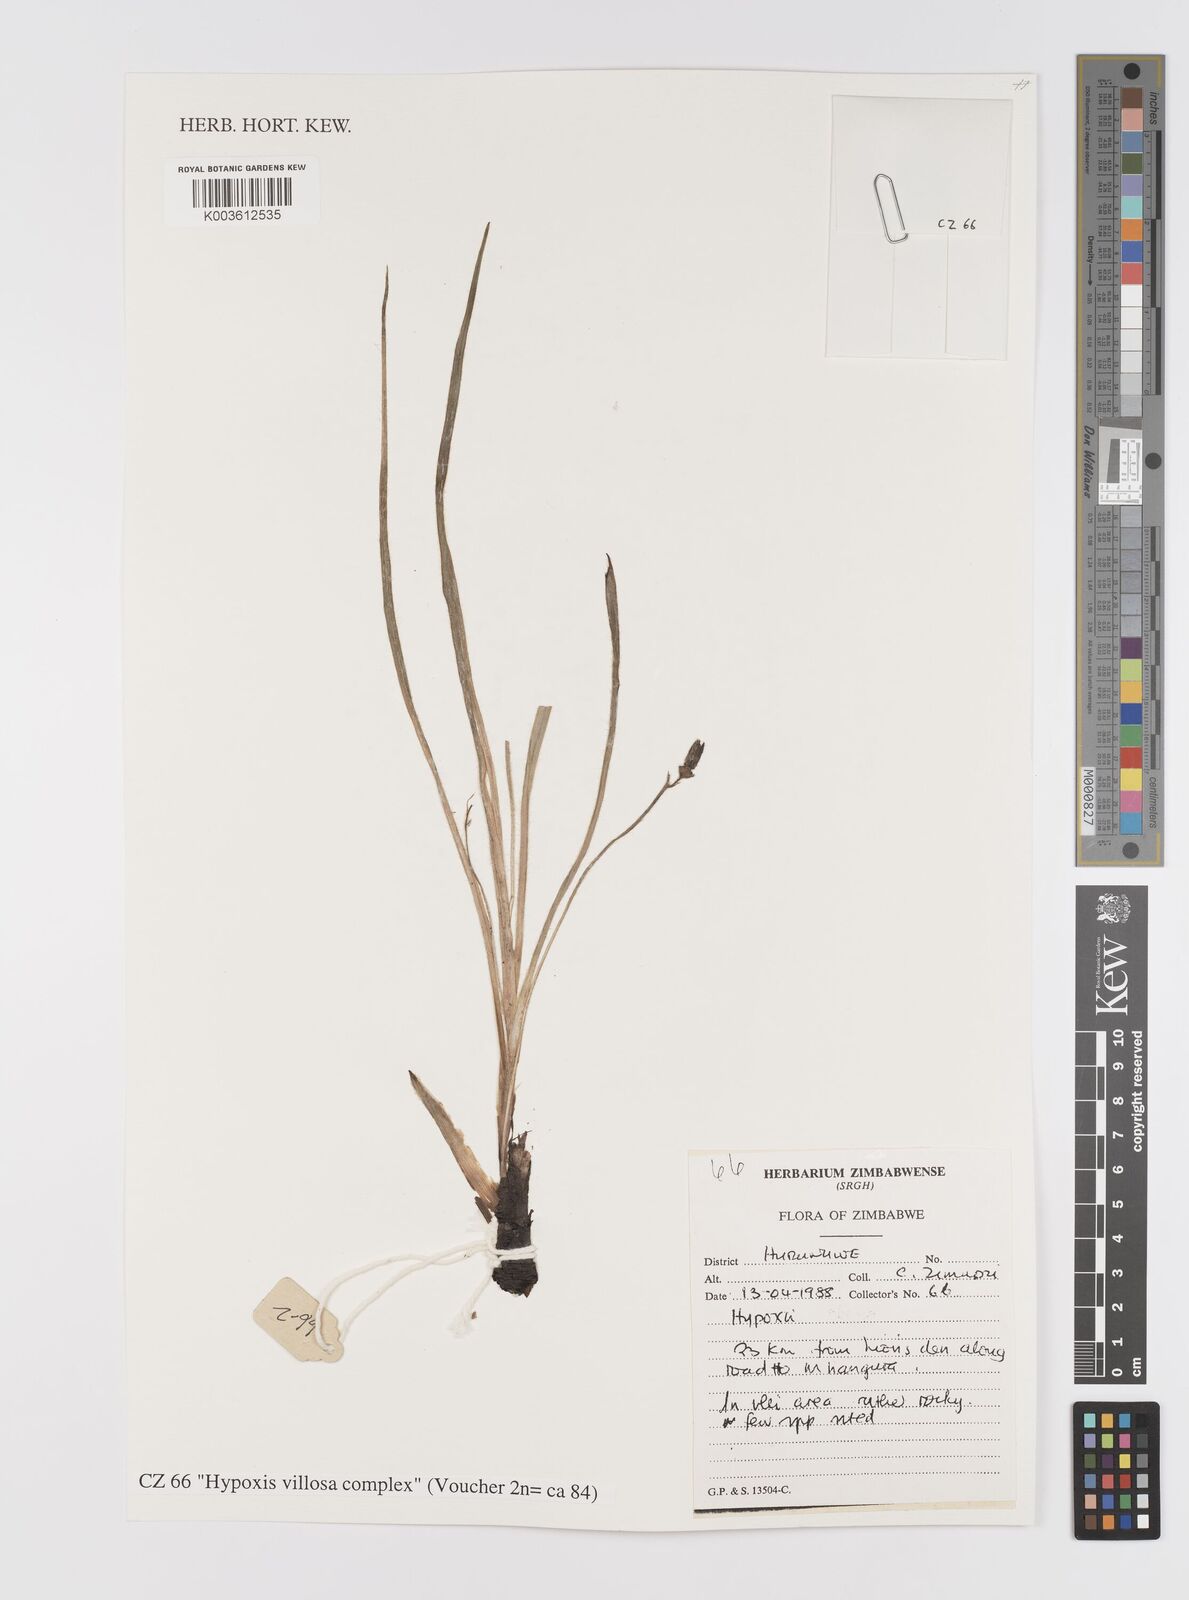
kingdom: Plantae
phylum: Tracheophyta
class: Liliopsida
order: Asparagales
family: Hypoxidaceae
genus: Hypoxis
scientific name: Hypoxis villosa
